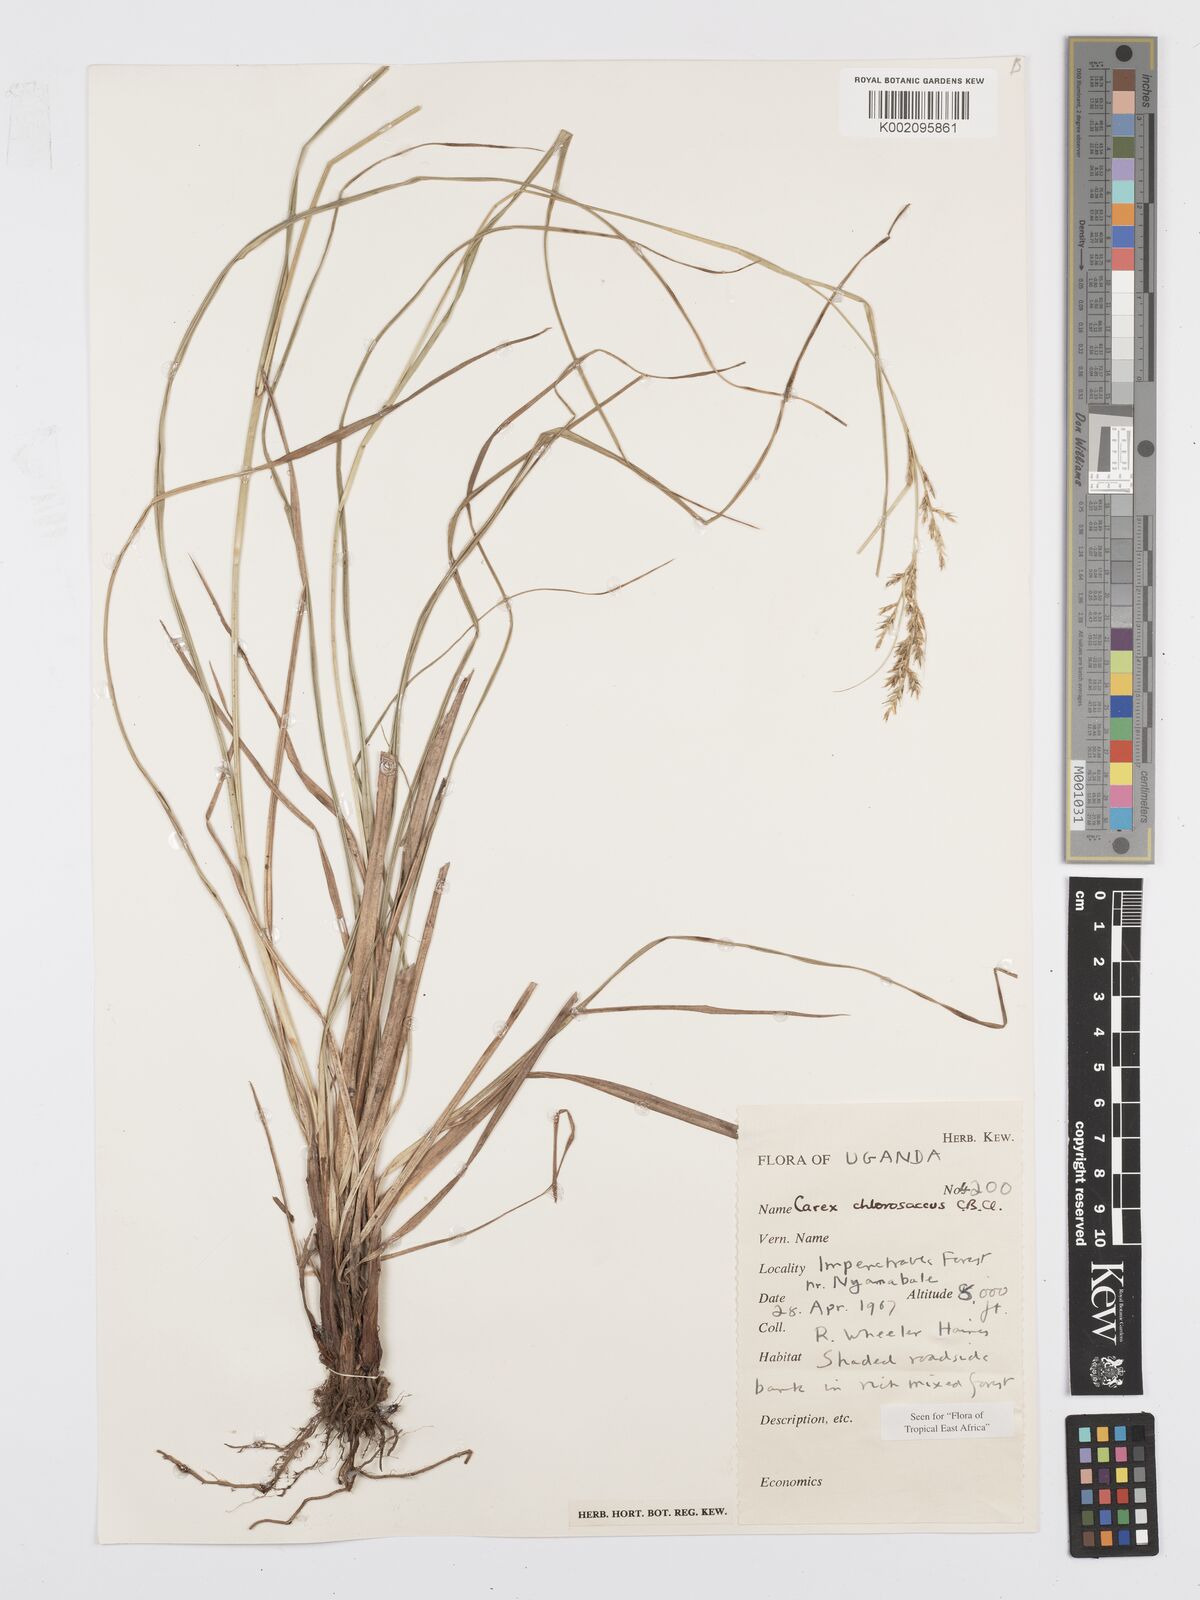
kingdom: Plantae
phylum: Tracheophyta
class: Liliopsida
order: Poales
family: Cyperaceae
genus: Carex
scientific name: Carex chlorosaccus
